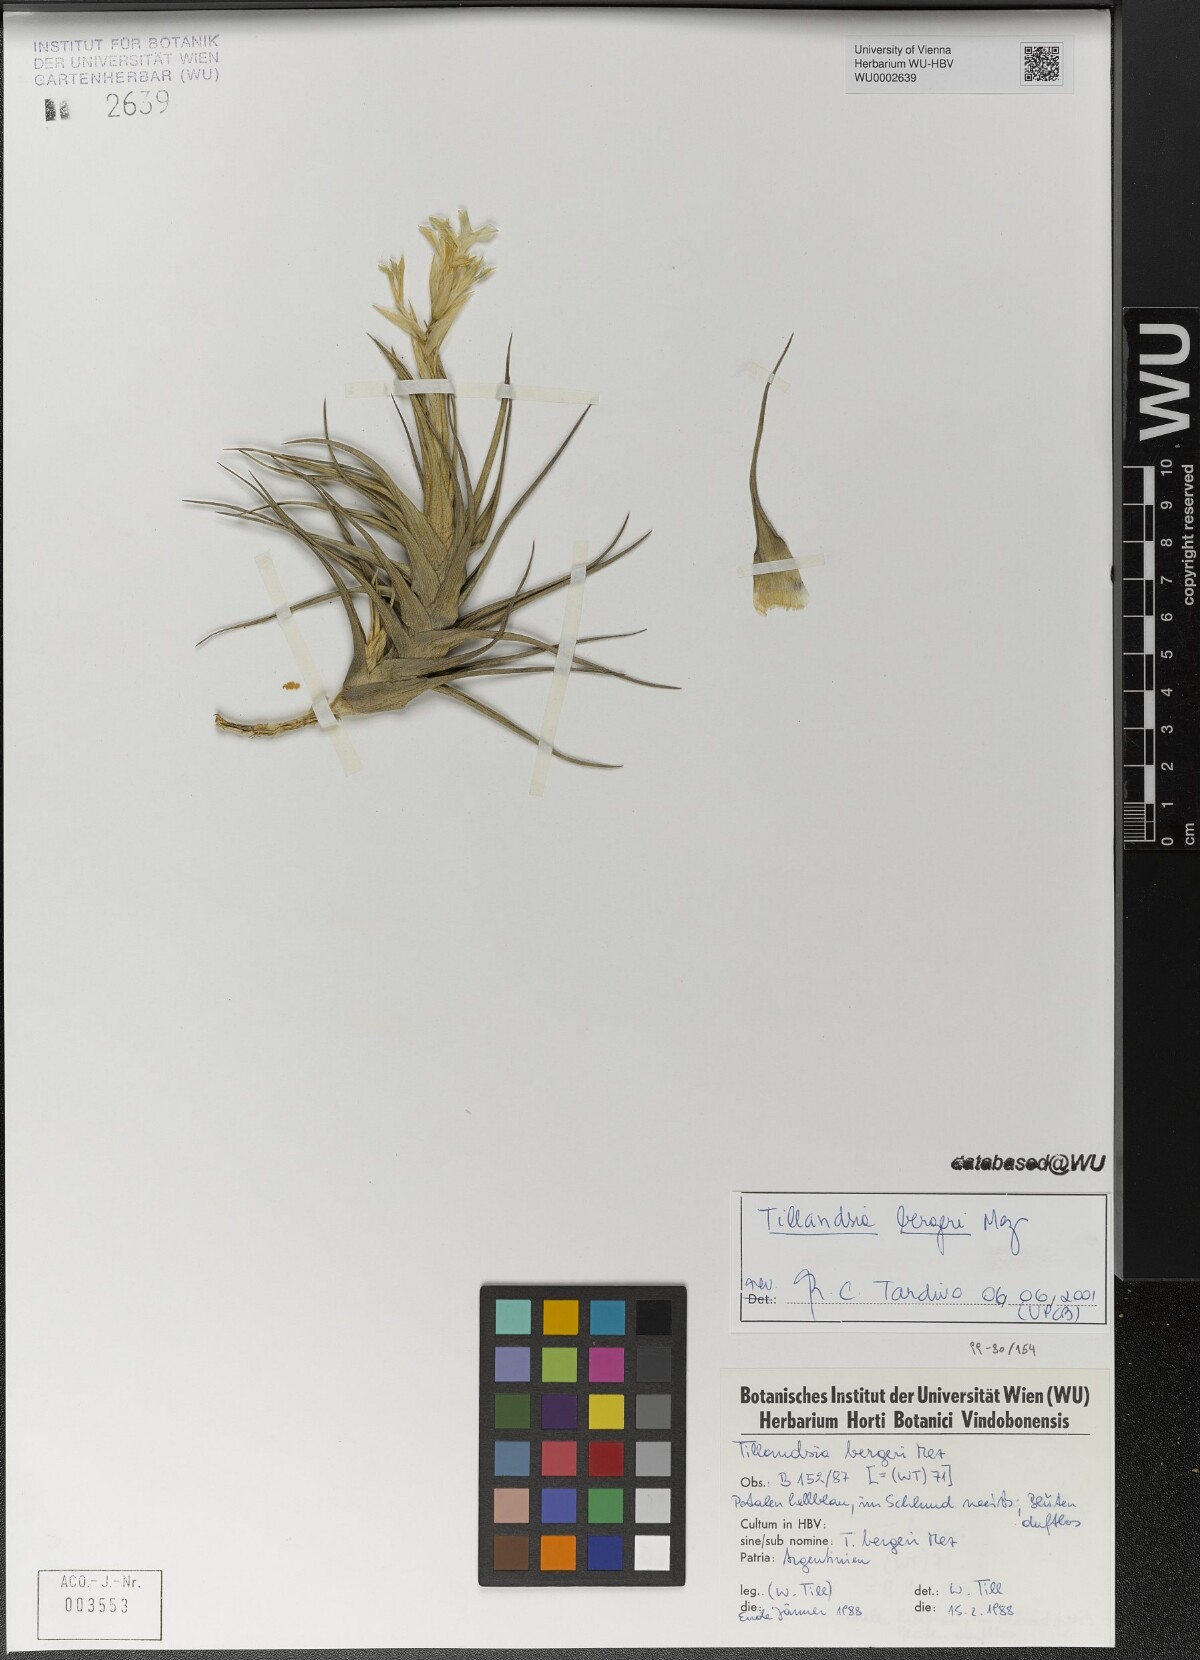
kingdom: Plantae
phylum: Tracheophyta
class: Liliopsida
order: Poales
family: Bromeliaceae
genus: Tillandsia
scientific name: Tillandsia bergeri
